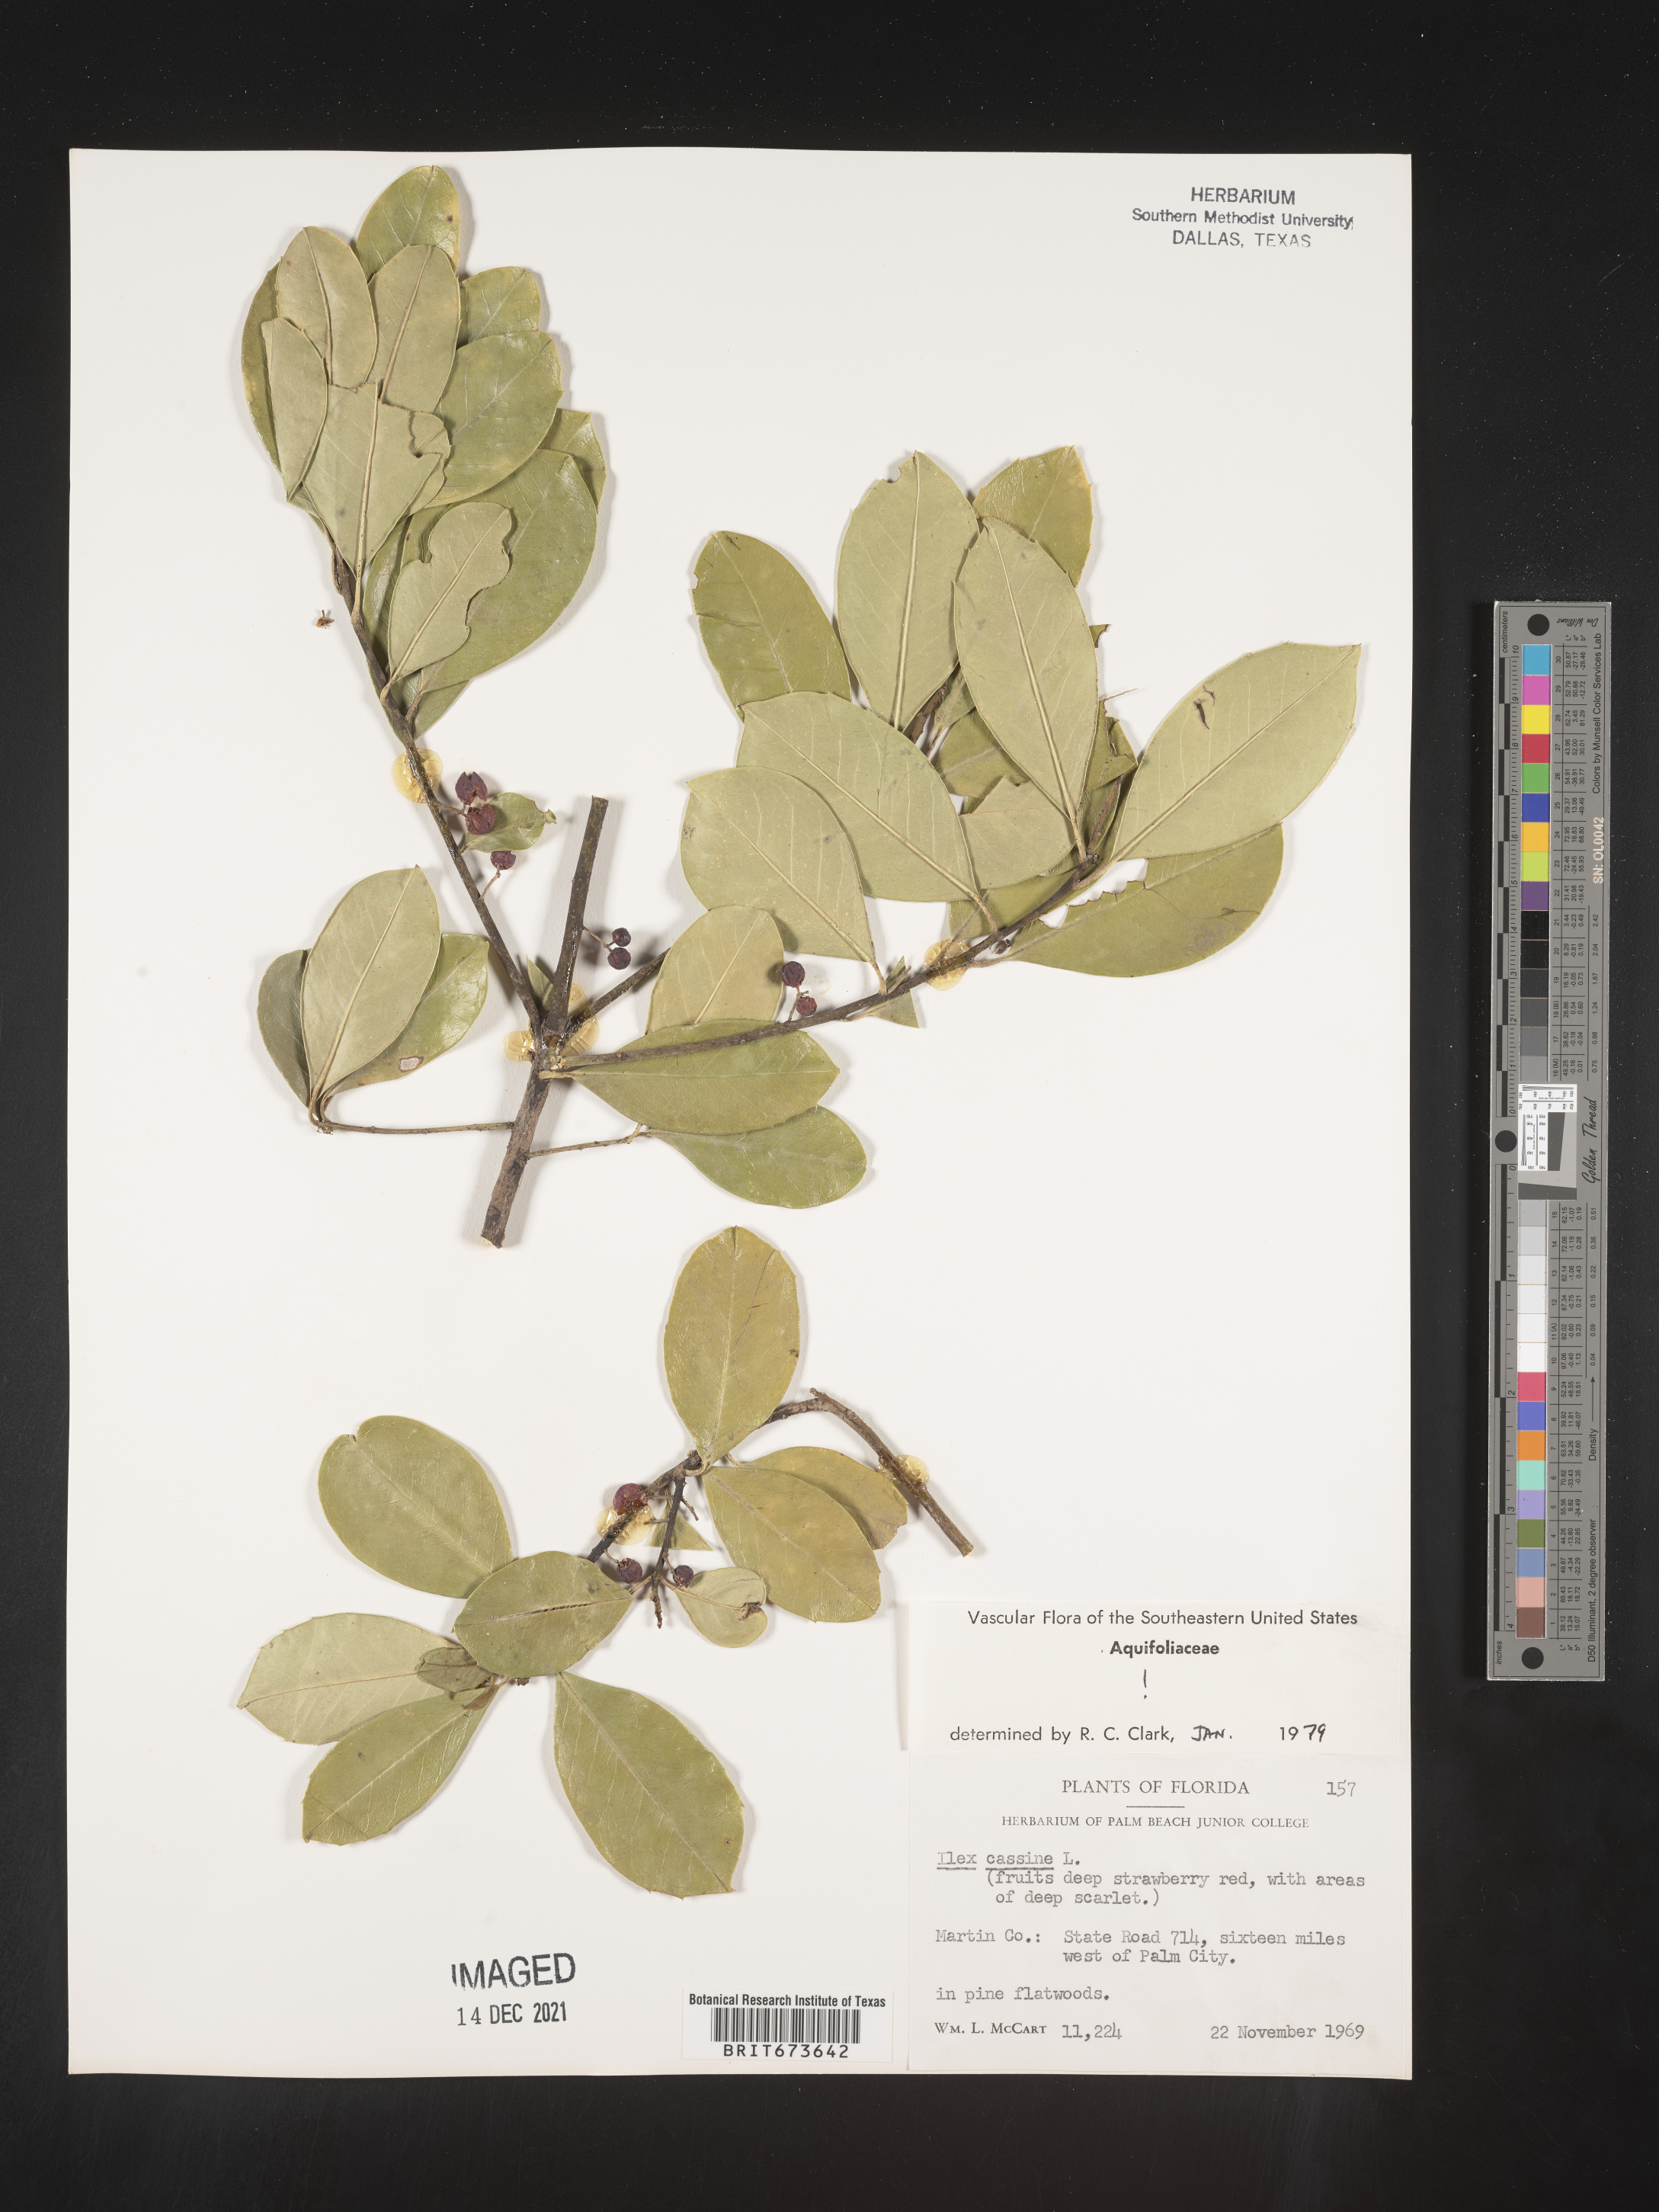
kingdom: Plantae
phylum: Tracheophyta
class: Magnoliopsida
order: Aquifoliales
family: Aquifoliaceae
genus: Ilex
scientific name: Ilex cassine
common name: Dahoon
